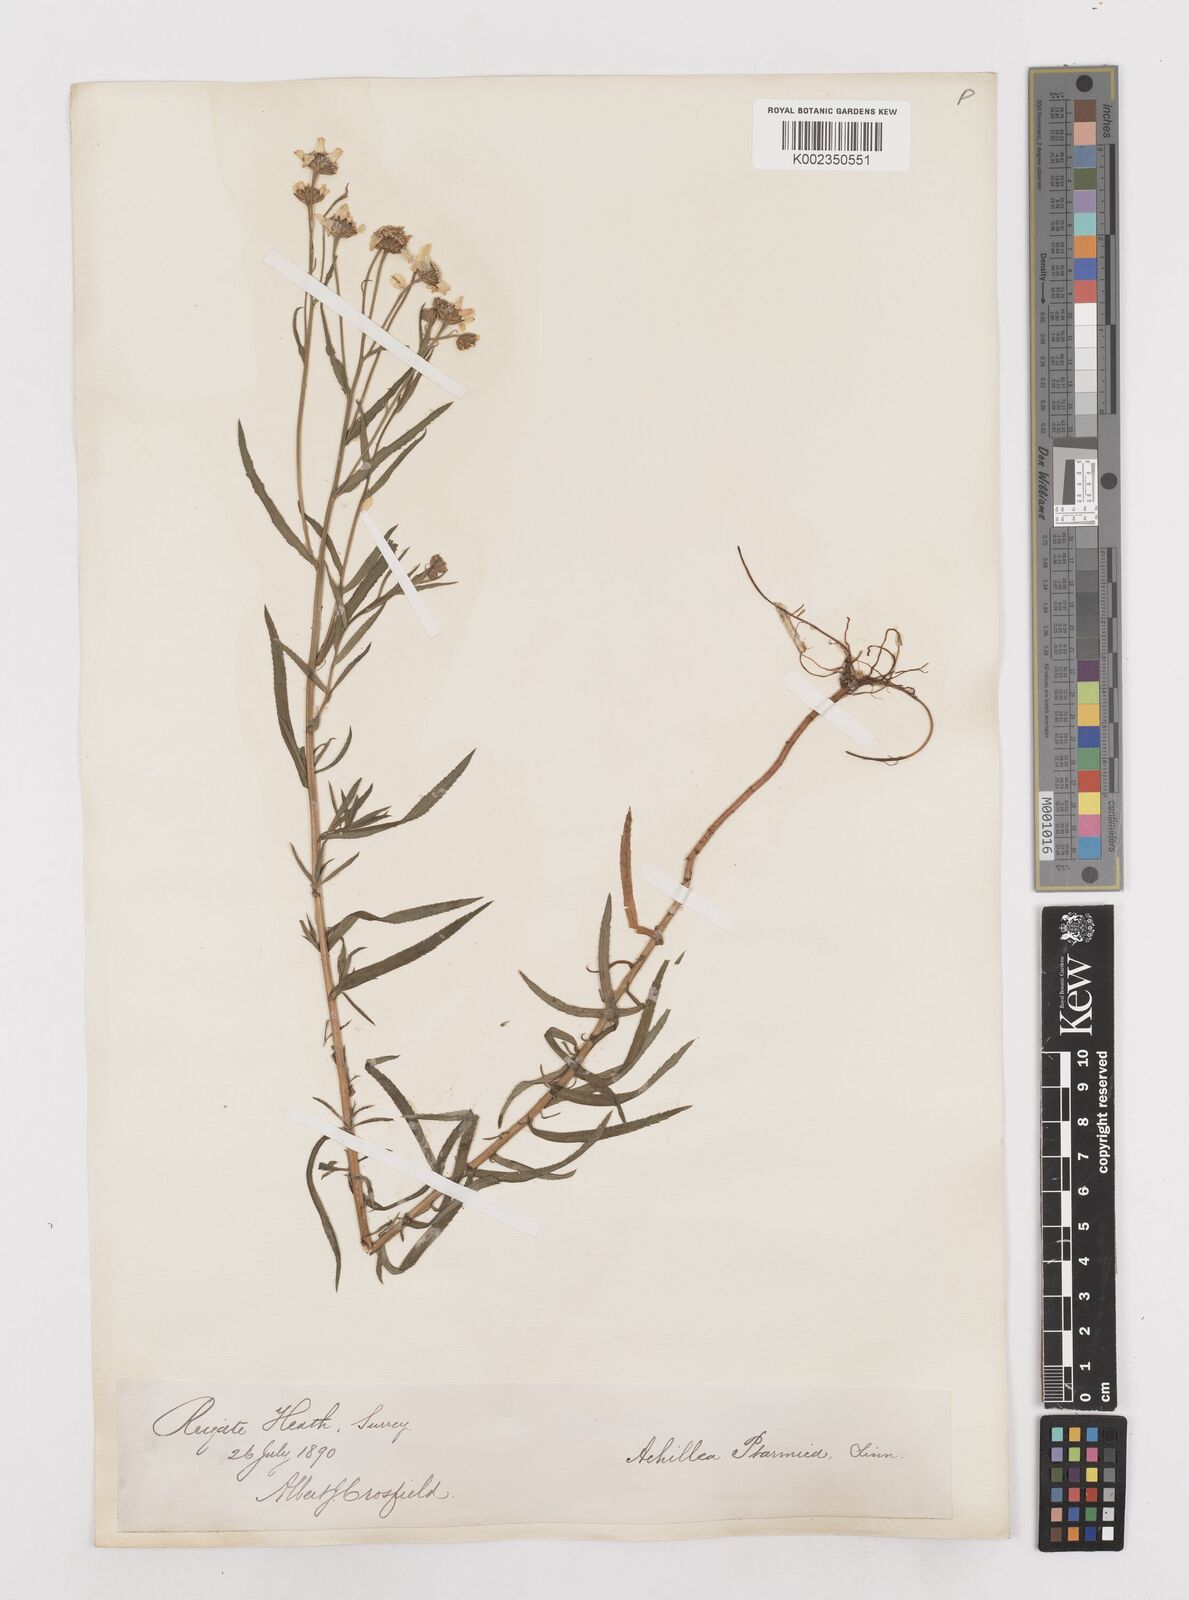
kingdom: Plantae
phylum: Tracheophyta
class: Magnoliopsida
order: Asterales
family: Asteraceae
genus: Achillea
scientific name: Achillea ptarmica
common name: Sneezeweed
